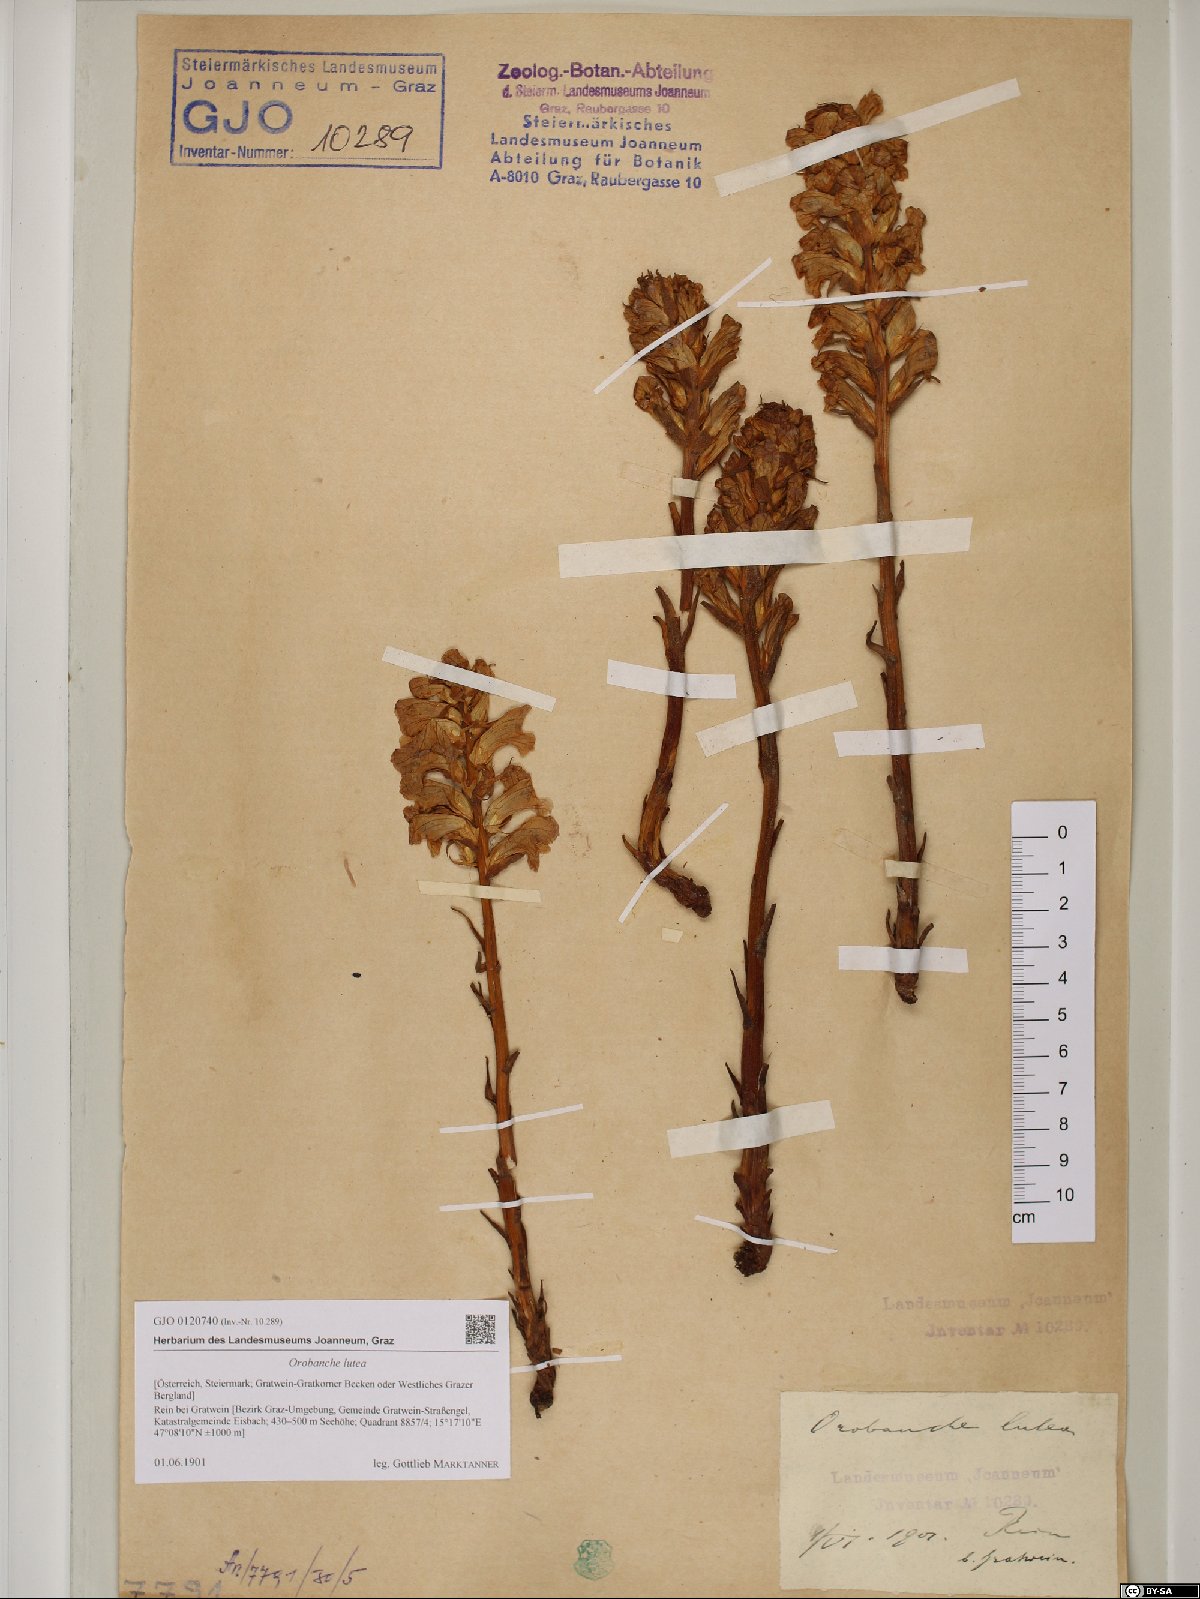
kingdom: Plantae
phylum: Tracheophyta
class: Magnoliopsida
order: Lamiales
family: Orobanchaceae
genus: Orobanche
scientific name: Orobanche lutea
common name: Yellow broomrape
